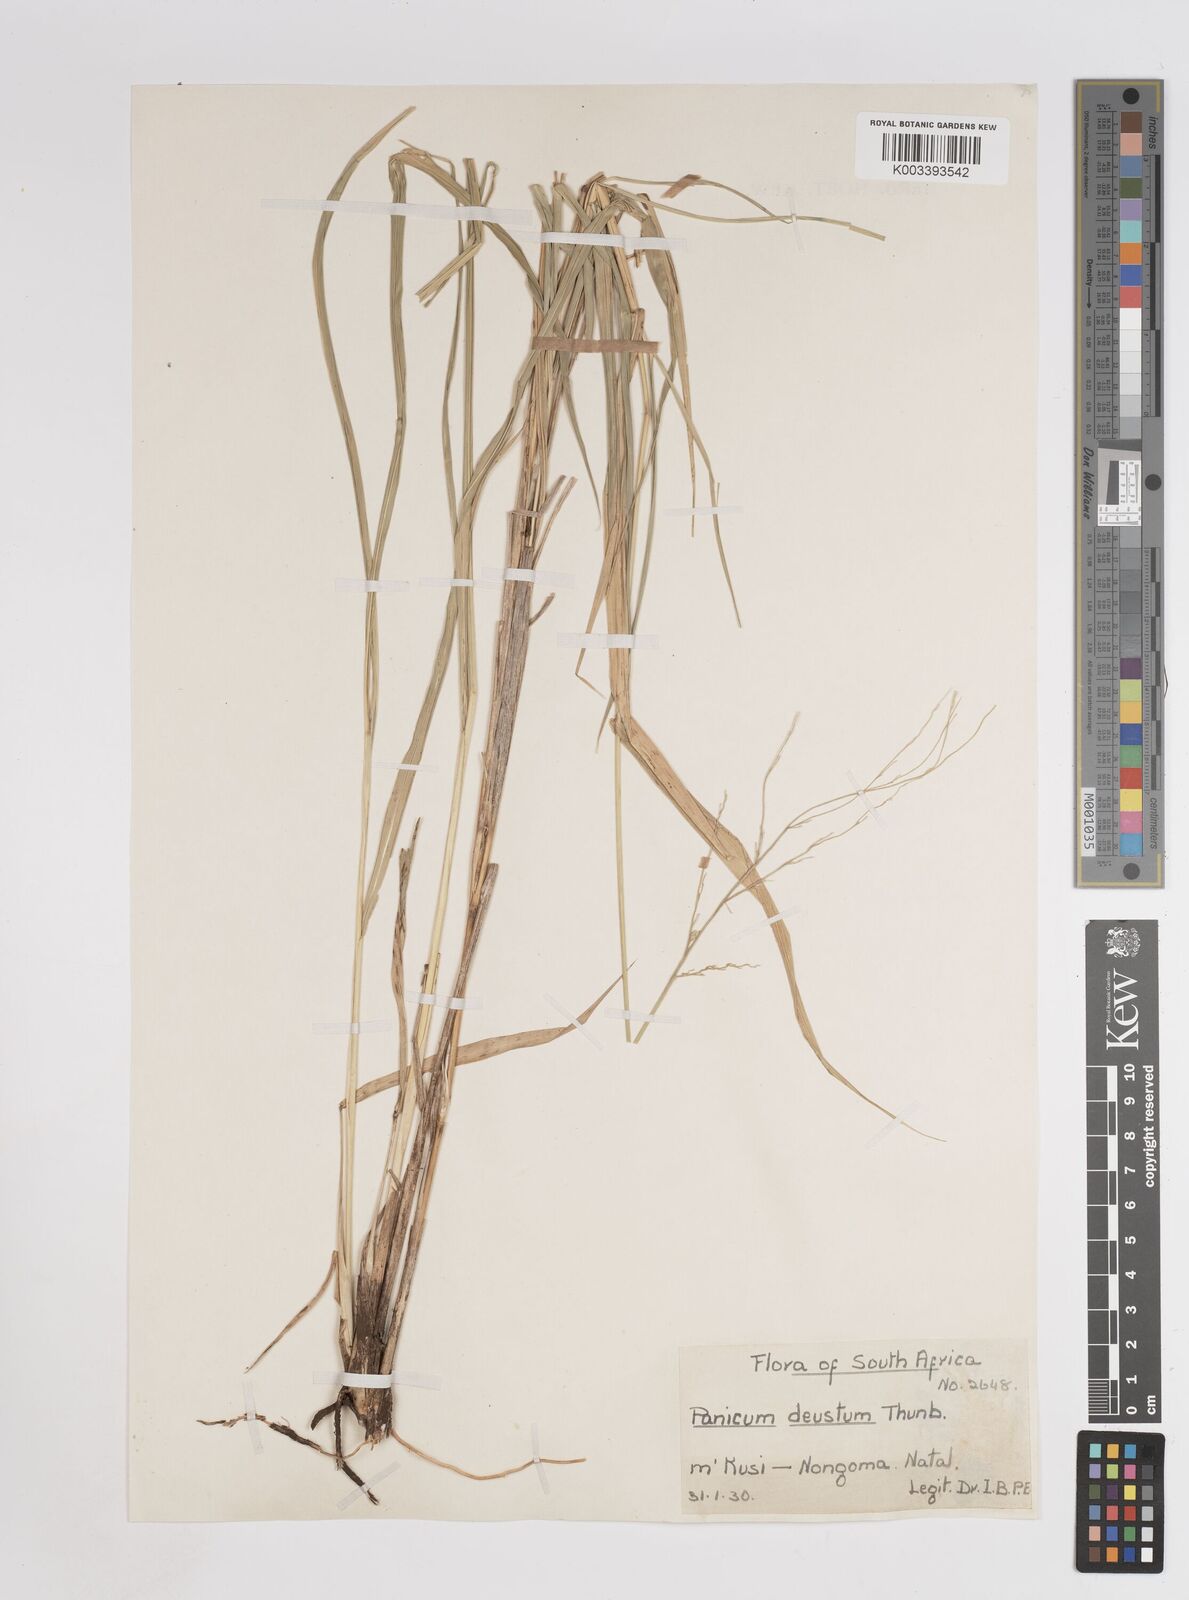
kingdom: Plantae
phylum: Tracheophyta
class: Liliopsida
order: Poales
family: Poaceae
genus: Megathyrsus
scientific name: Megathyrsus maximus
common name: Guineagrass
